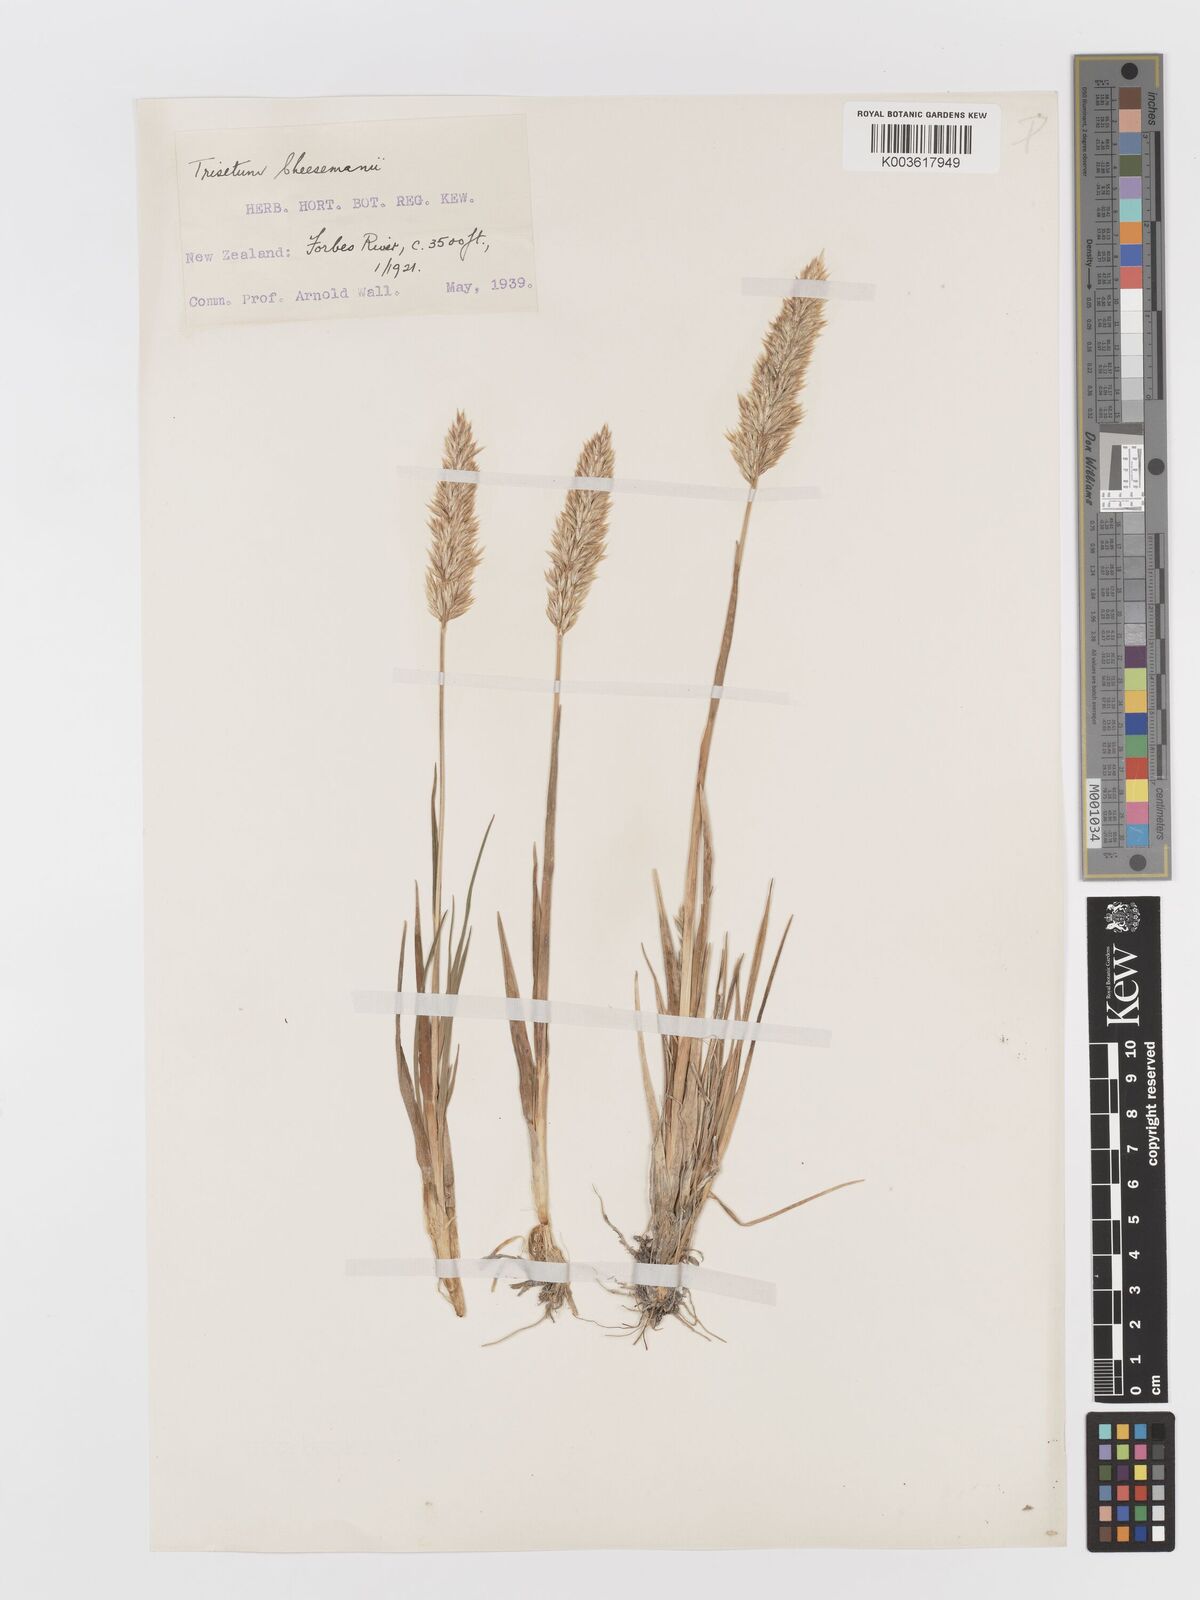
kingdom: Plantae
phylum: Tracheophyta
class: Liliopsida
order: Poales
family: Poaceae
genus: Koeleria
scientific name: Koeleria cheesemanii
